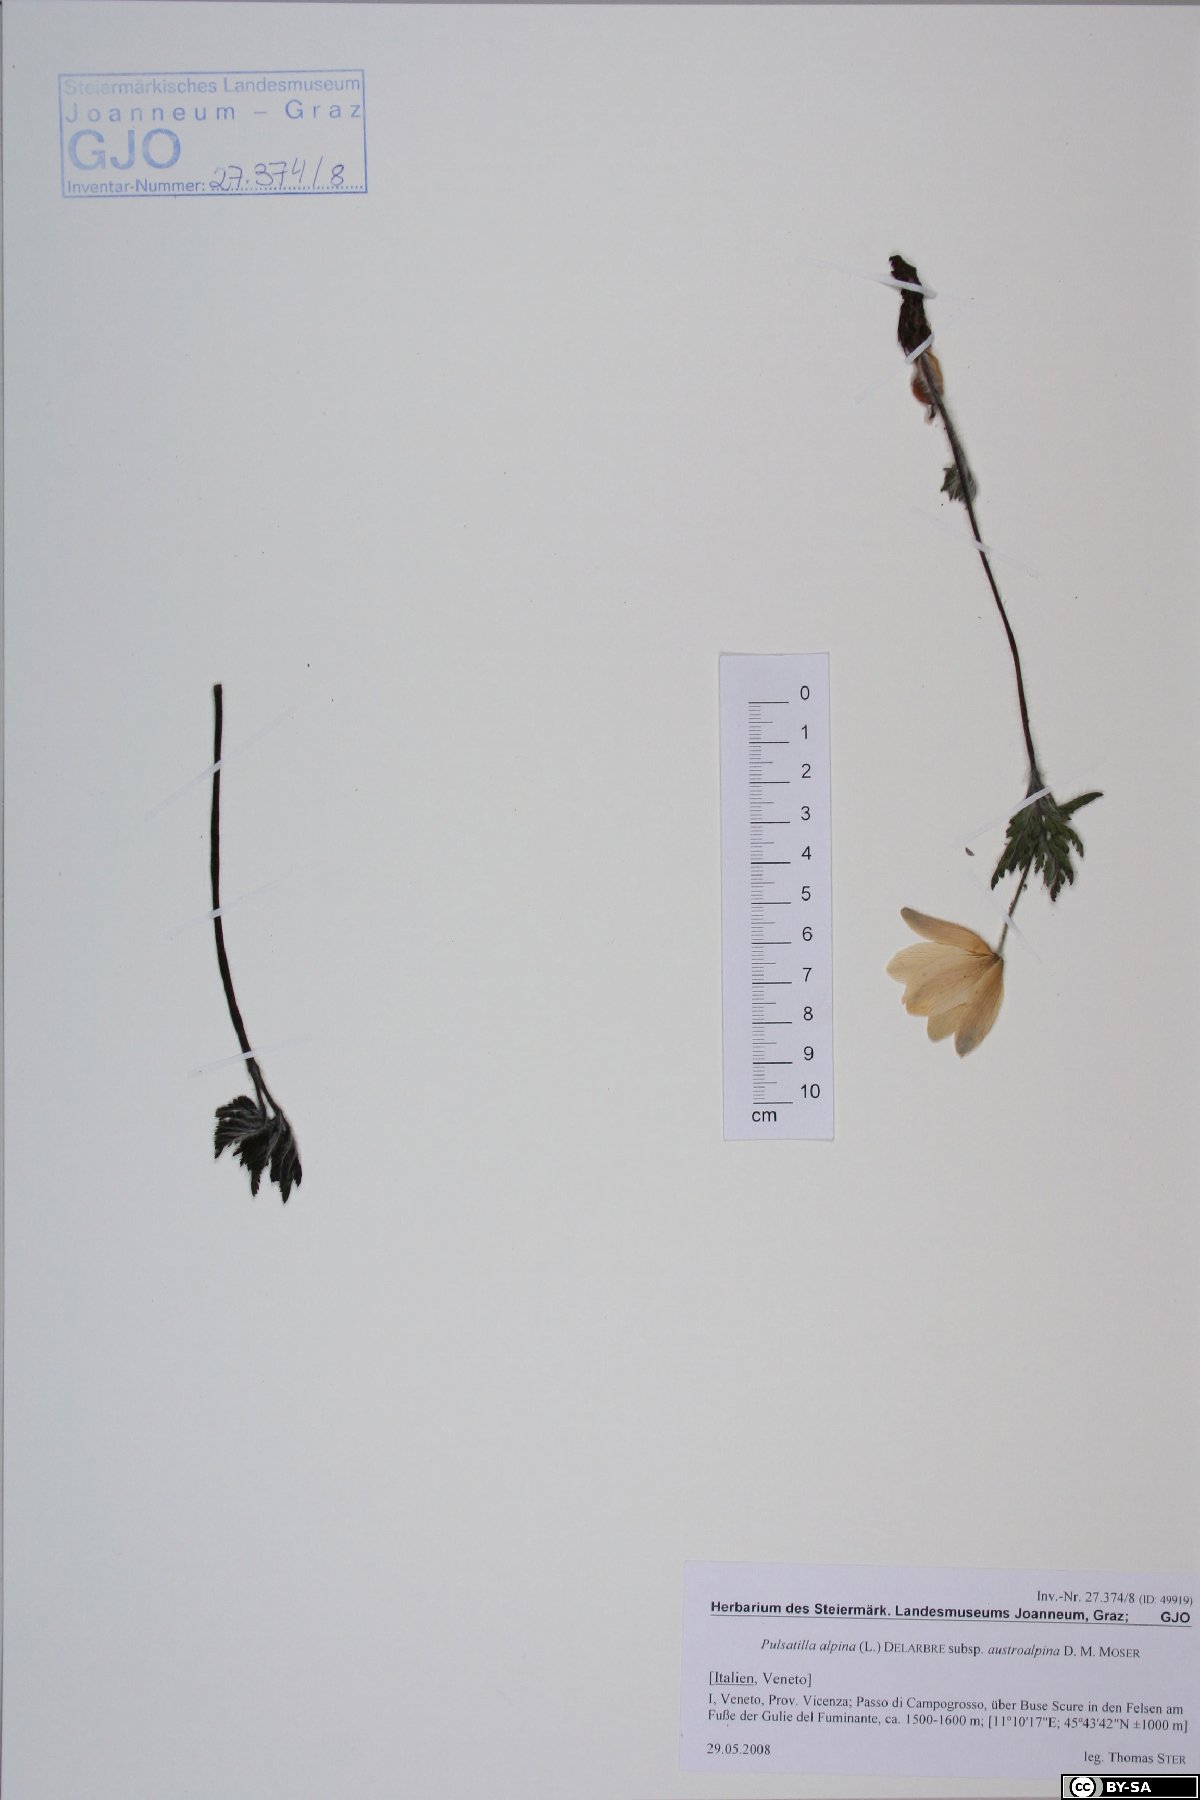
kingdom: Plantae
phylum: Tracheophyta
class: Magnoliopsida
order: Ranunculales
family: Ranunculaceae
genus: Pulsatilla
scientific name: Pulsatilla alpina
